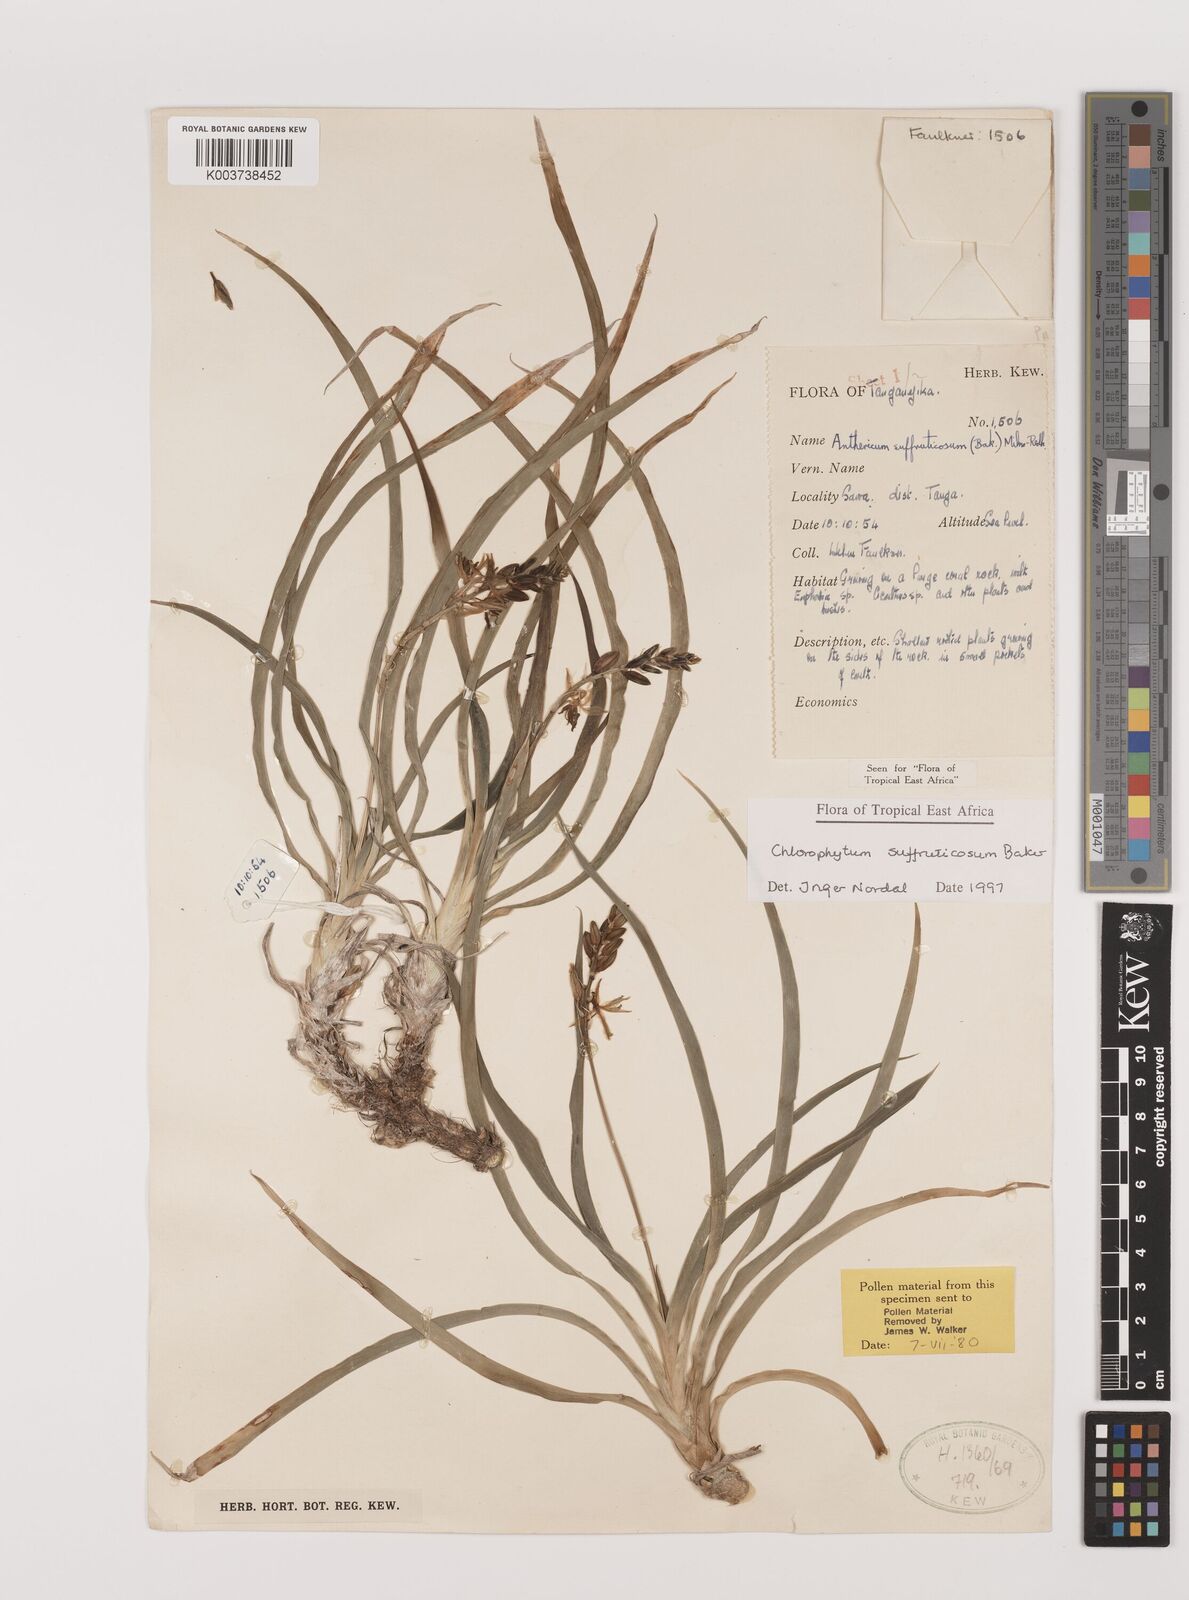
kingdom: Plantae
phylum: Tracheophyta
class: Liliopsida
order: Asparagales
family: Asparagaceae
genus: Chlorophytum
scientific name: Chlorophytum suffruticosum
